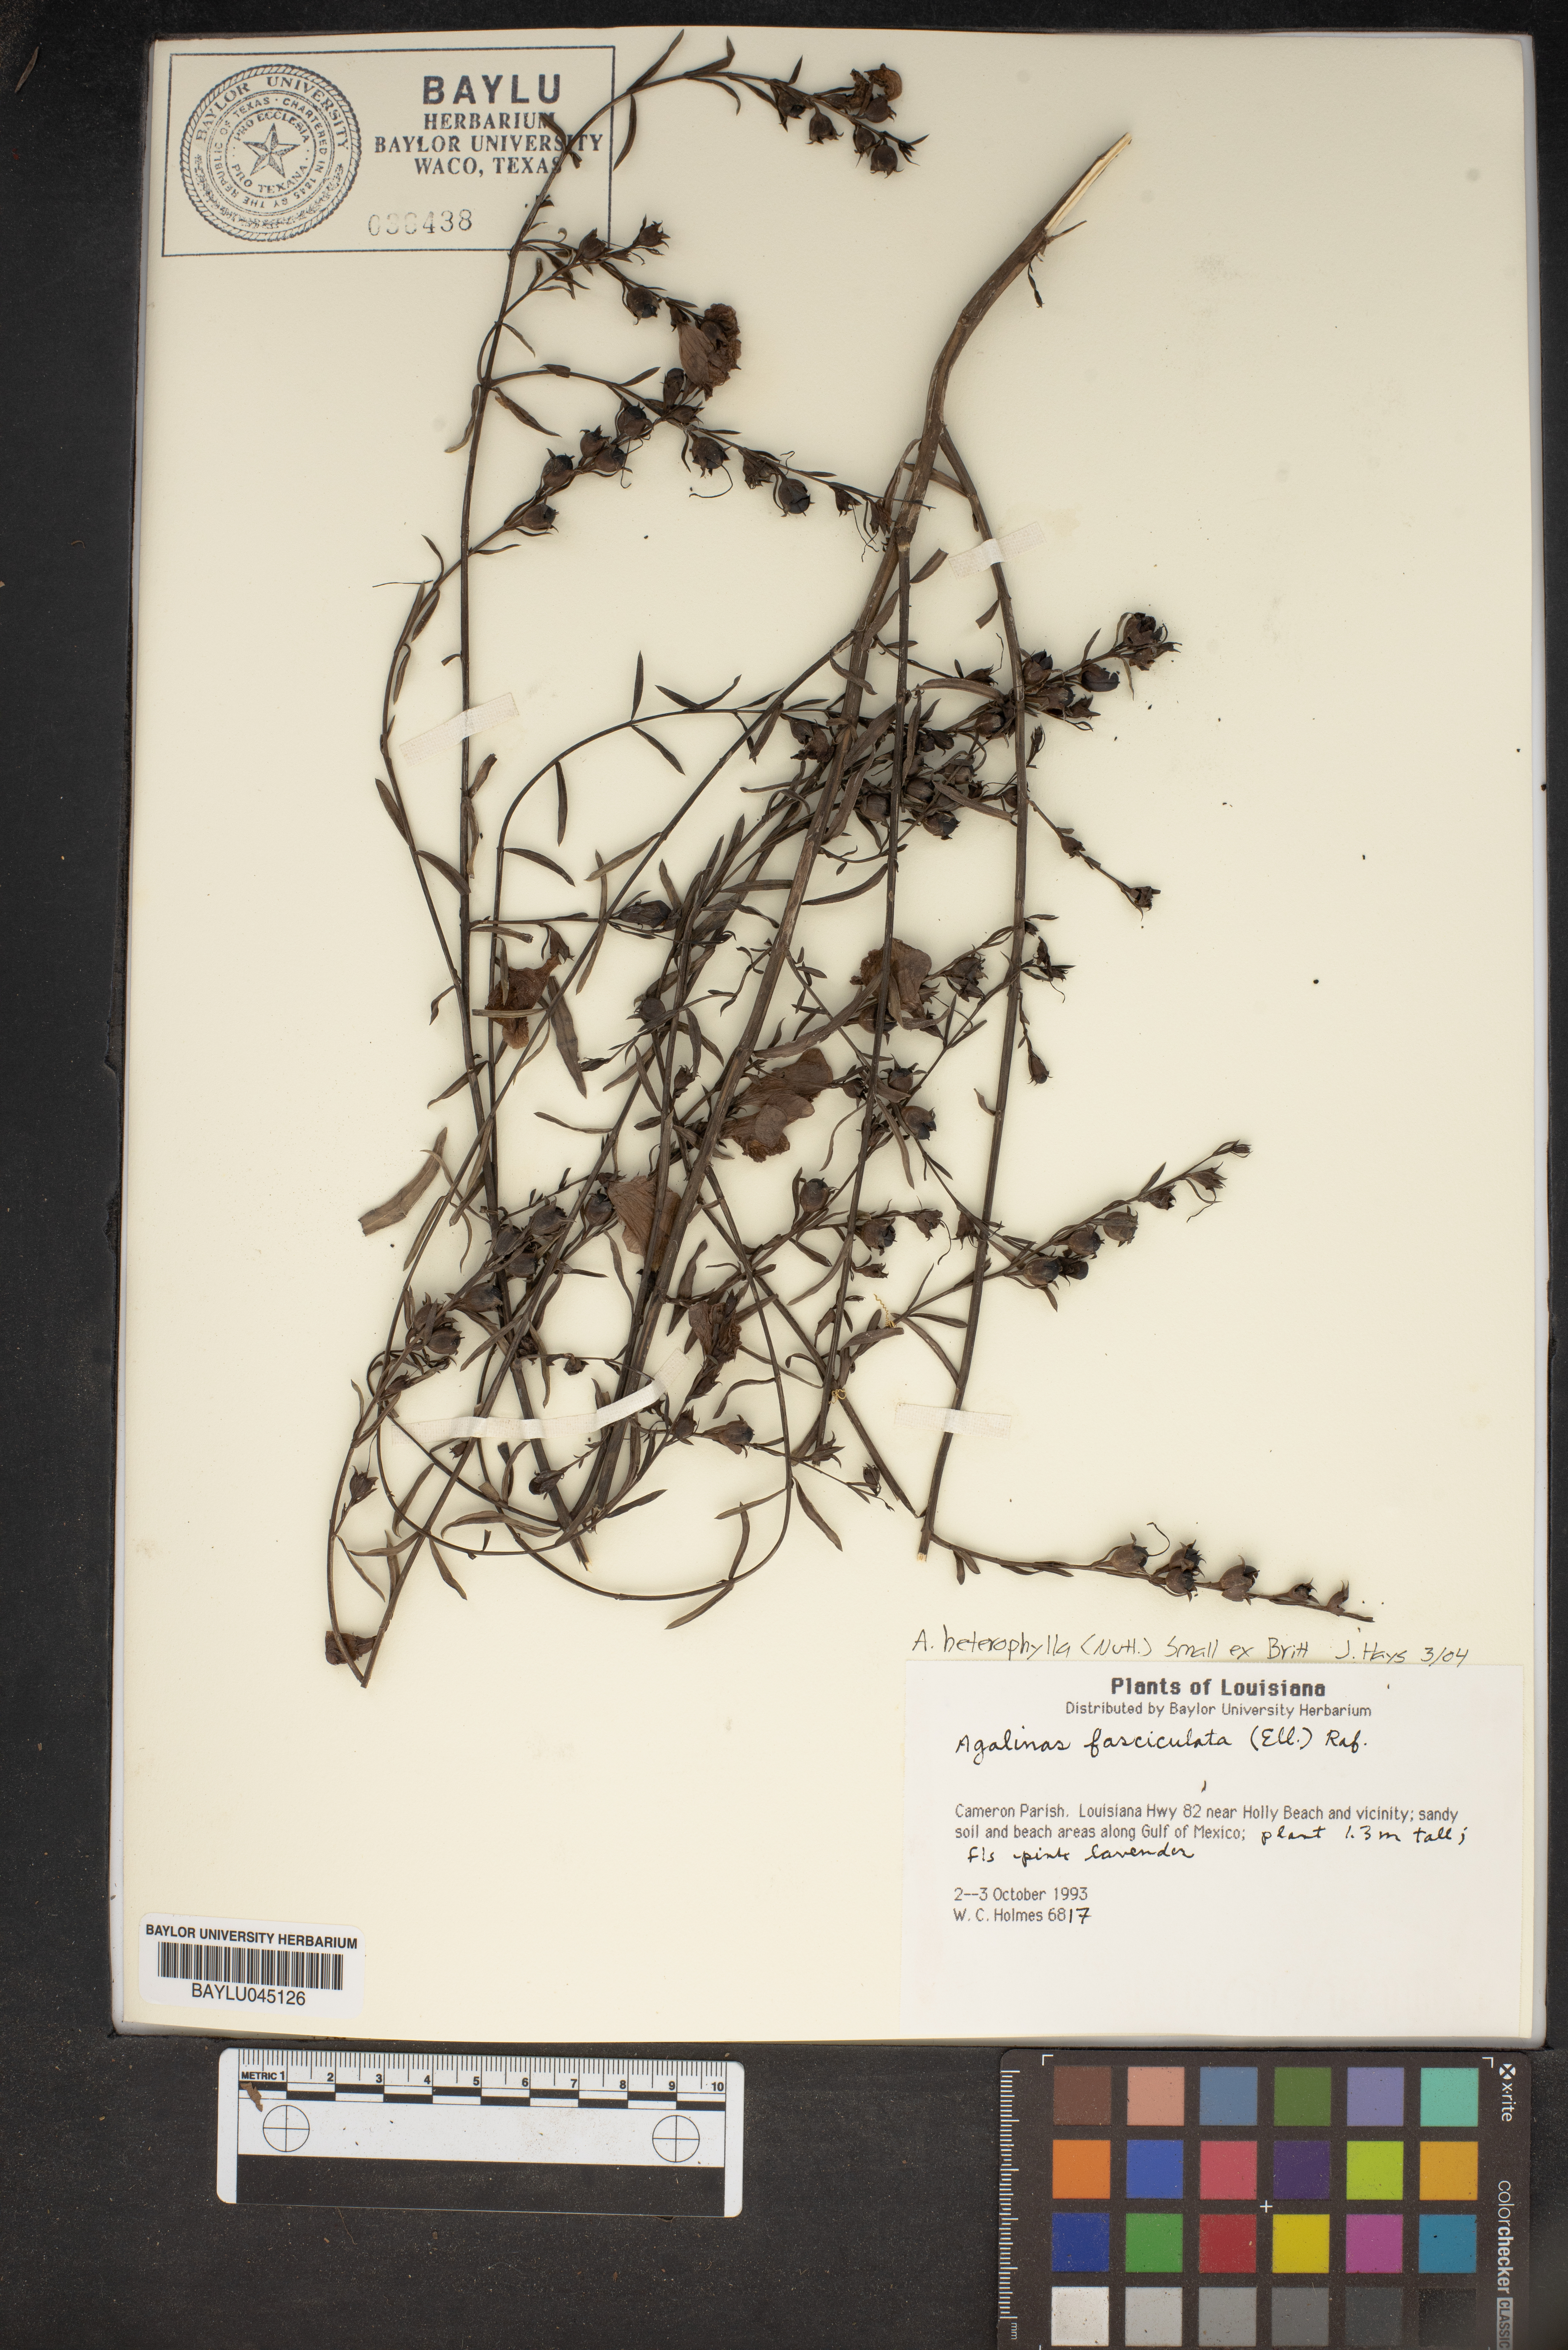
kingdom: Plantae
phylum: Tracheophyta
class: Magnoliopsida
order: Lamiales
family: Orobanchaceae
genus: Agalinis
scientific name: Agalinis fasciculata
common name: Beach false foxglove
